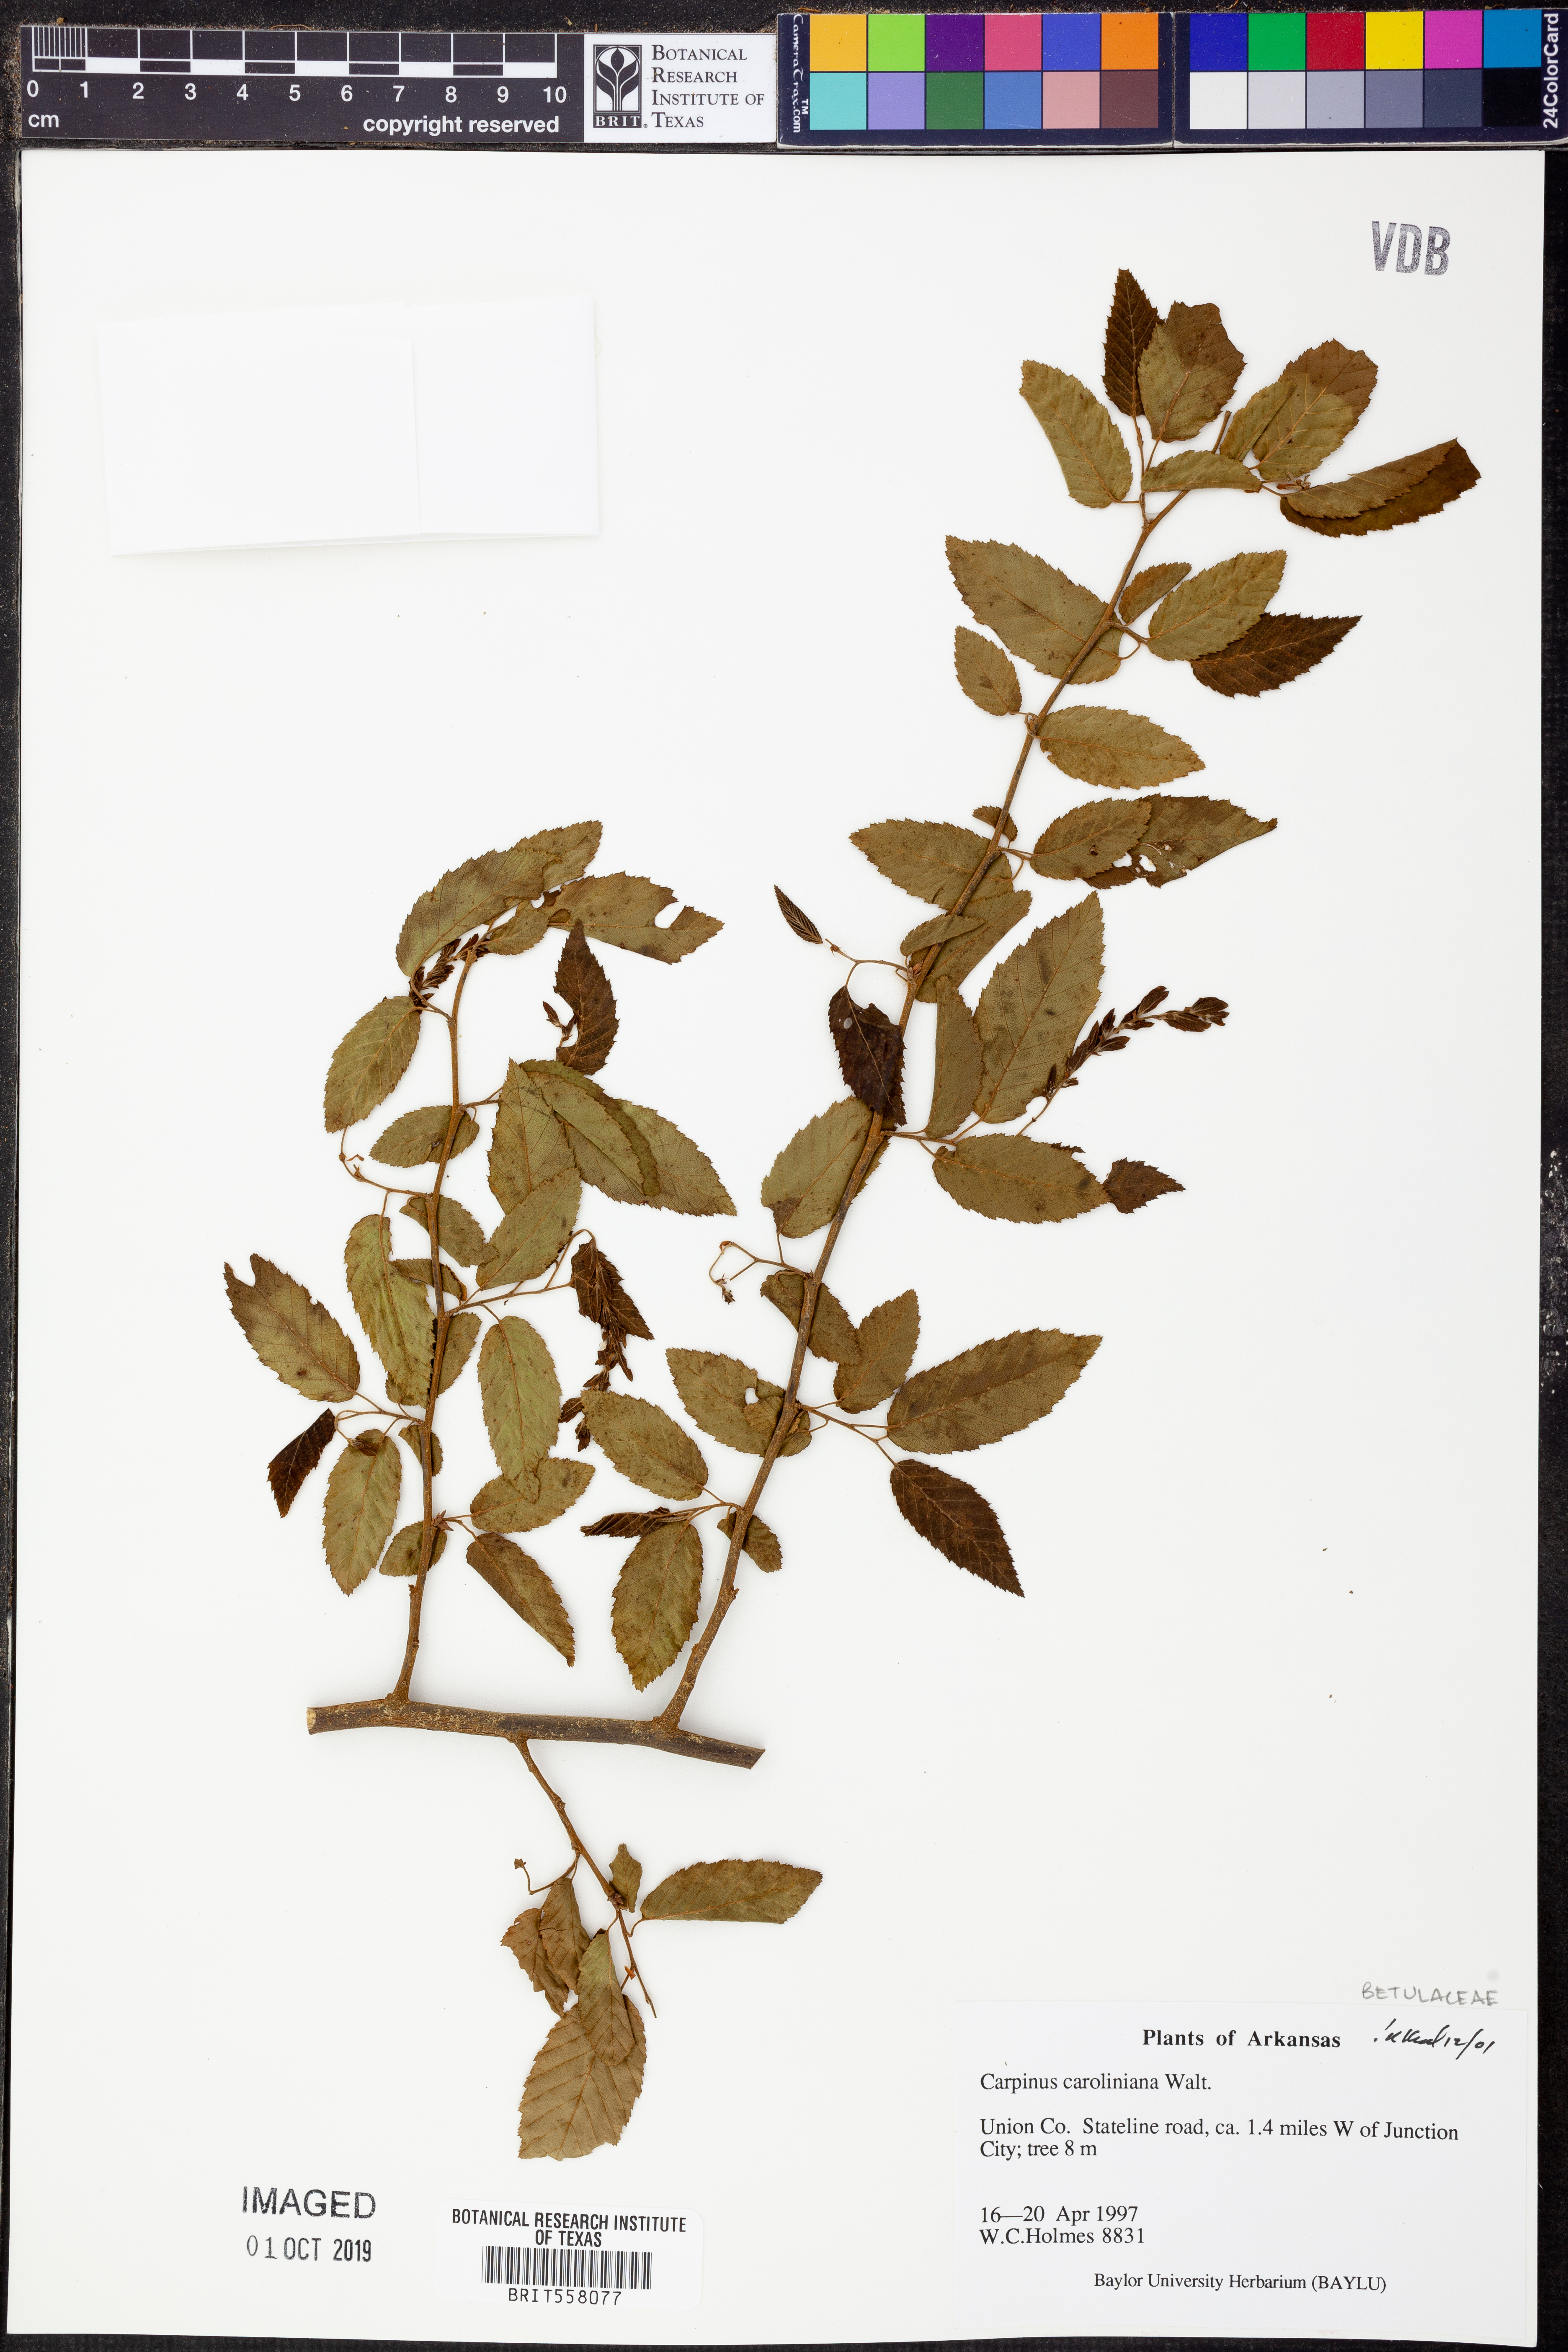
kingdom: Plantae
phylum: Tracheophyta
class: Magnoliopsida
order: Fagales
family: Betulaceae
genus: Carpinus
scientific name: Carpinus caroliniana
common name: American hornbeam
